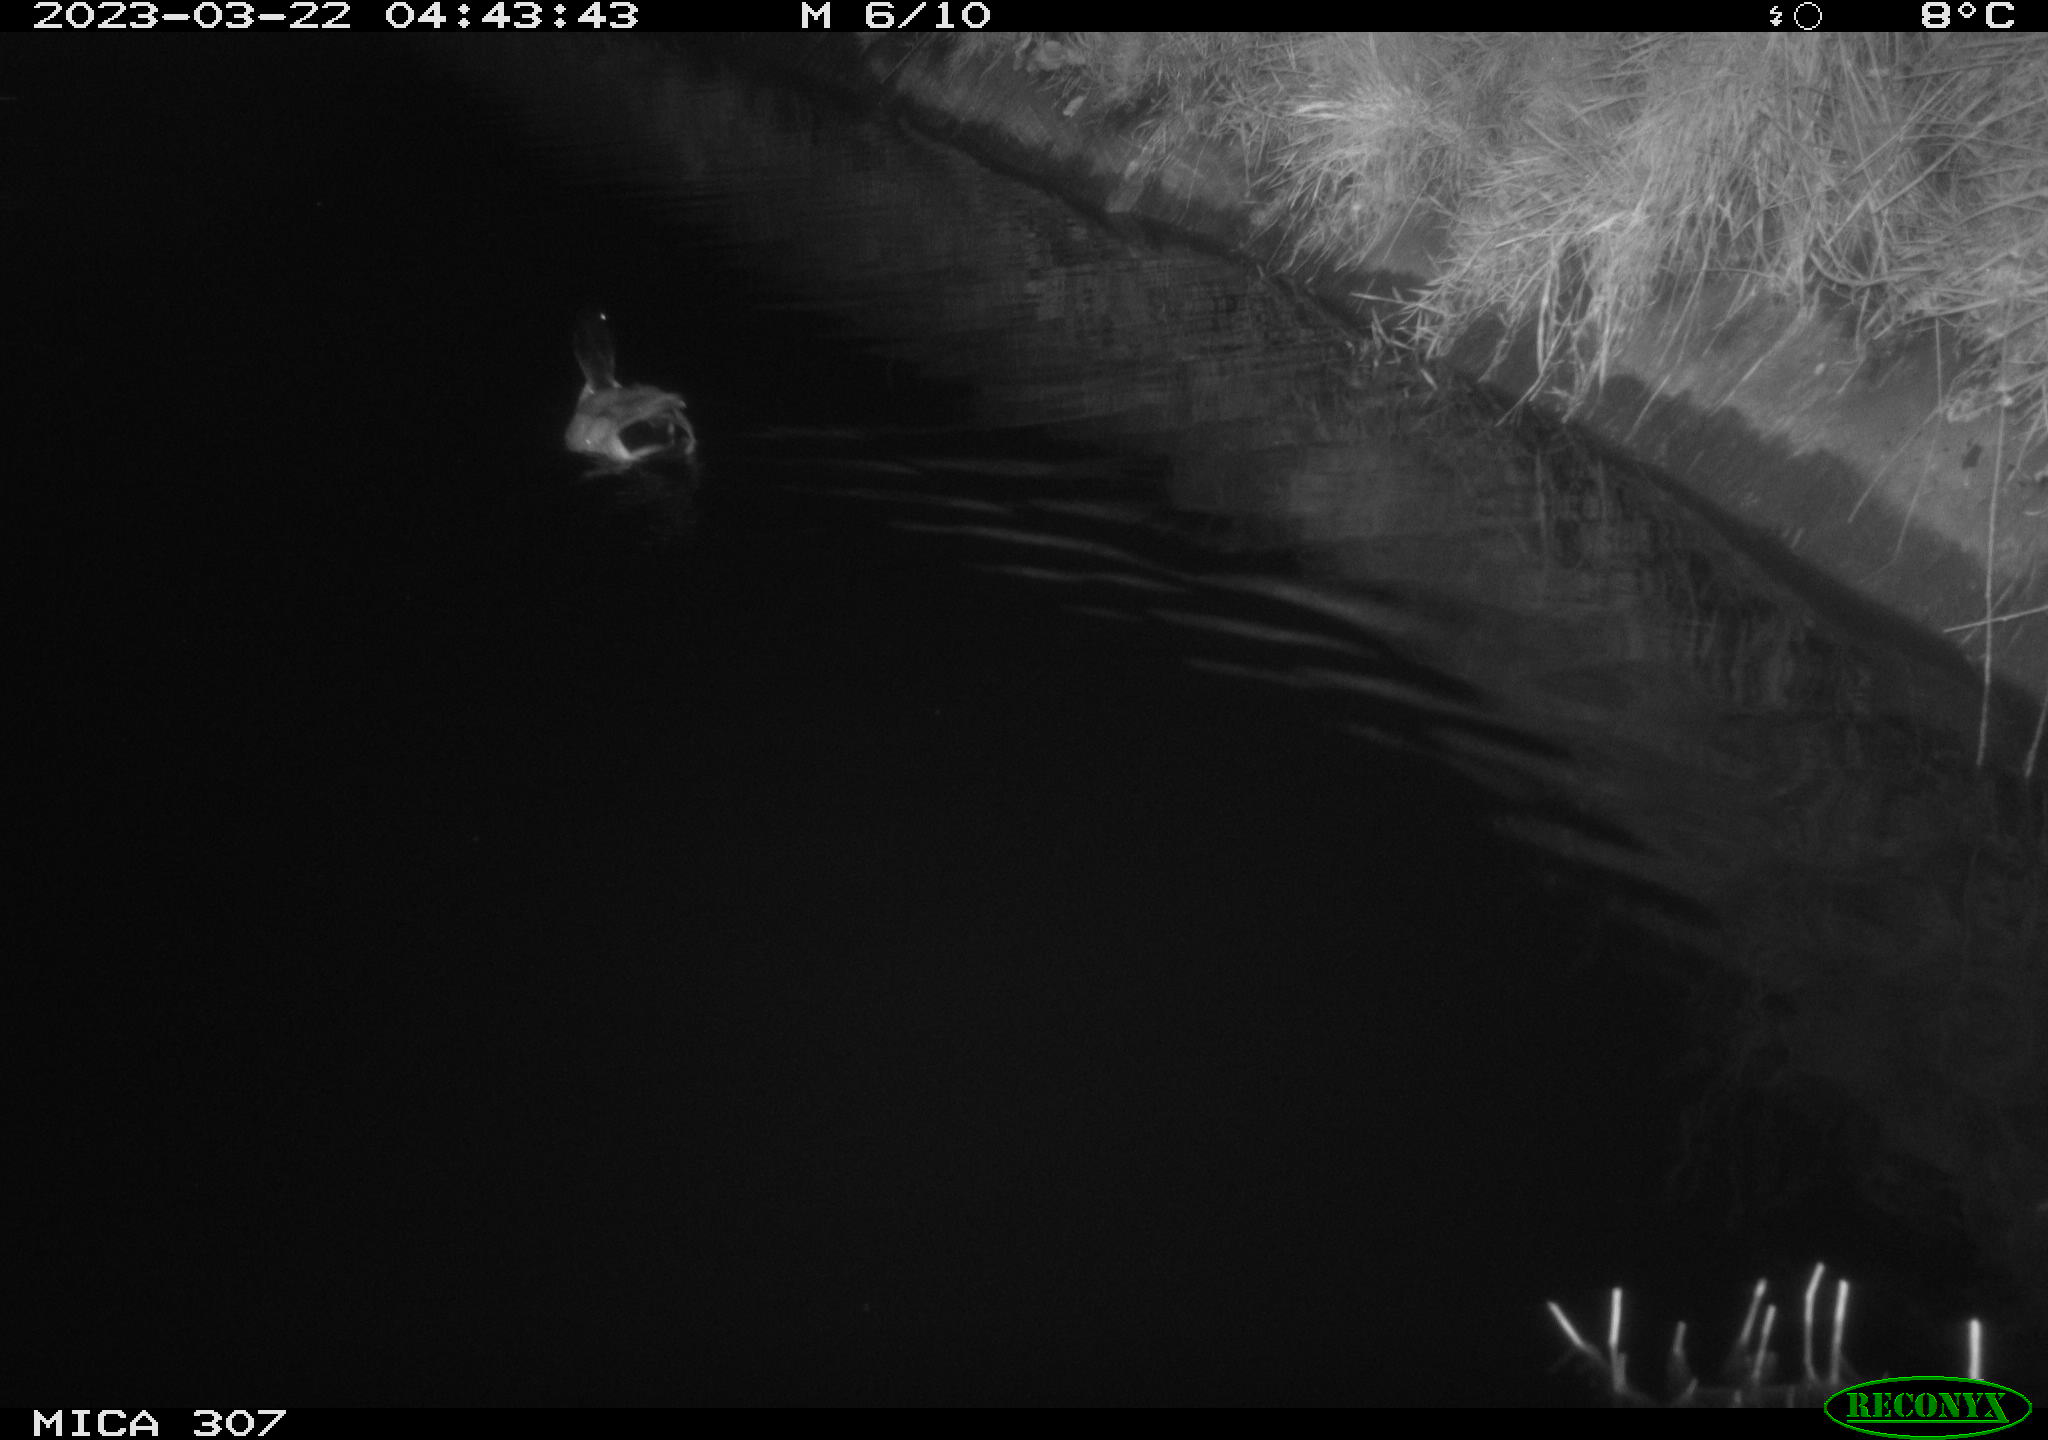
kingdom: Animalia
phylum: Chordata
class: Aves
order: Anseriformes
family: Anatidae
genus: Anas
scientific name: Anas
